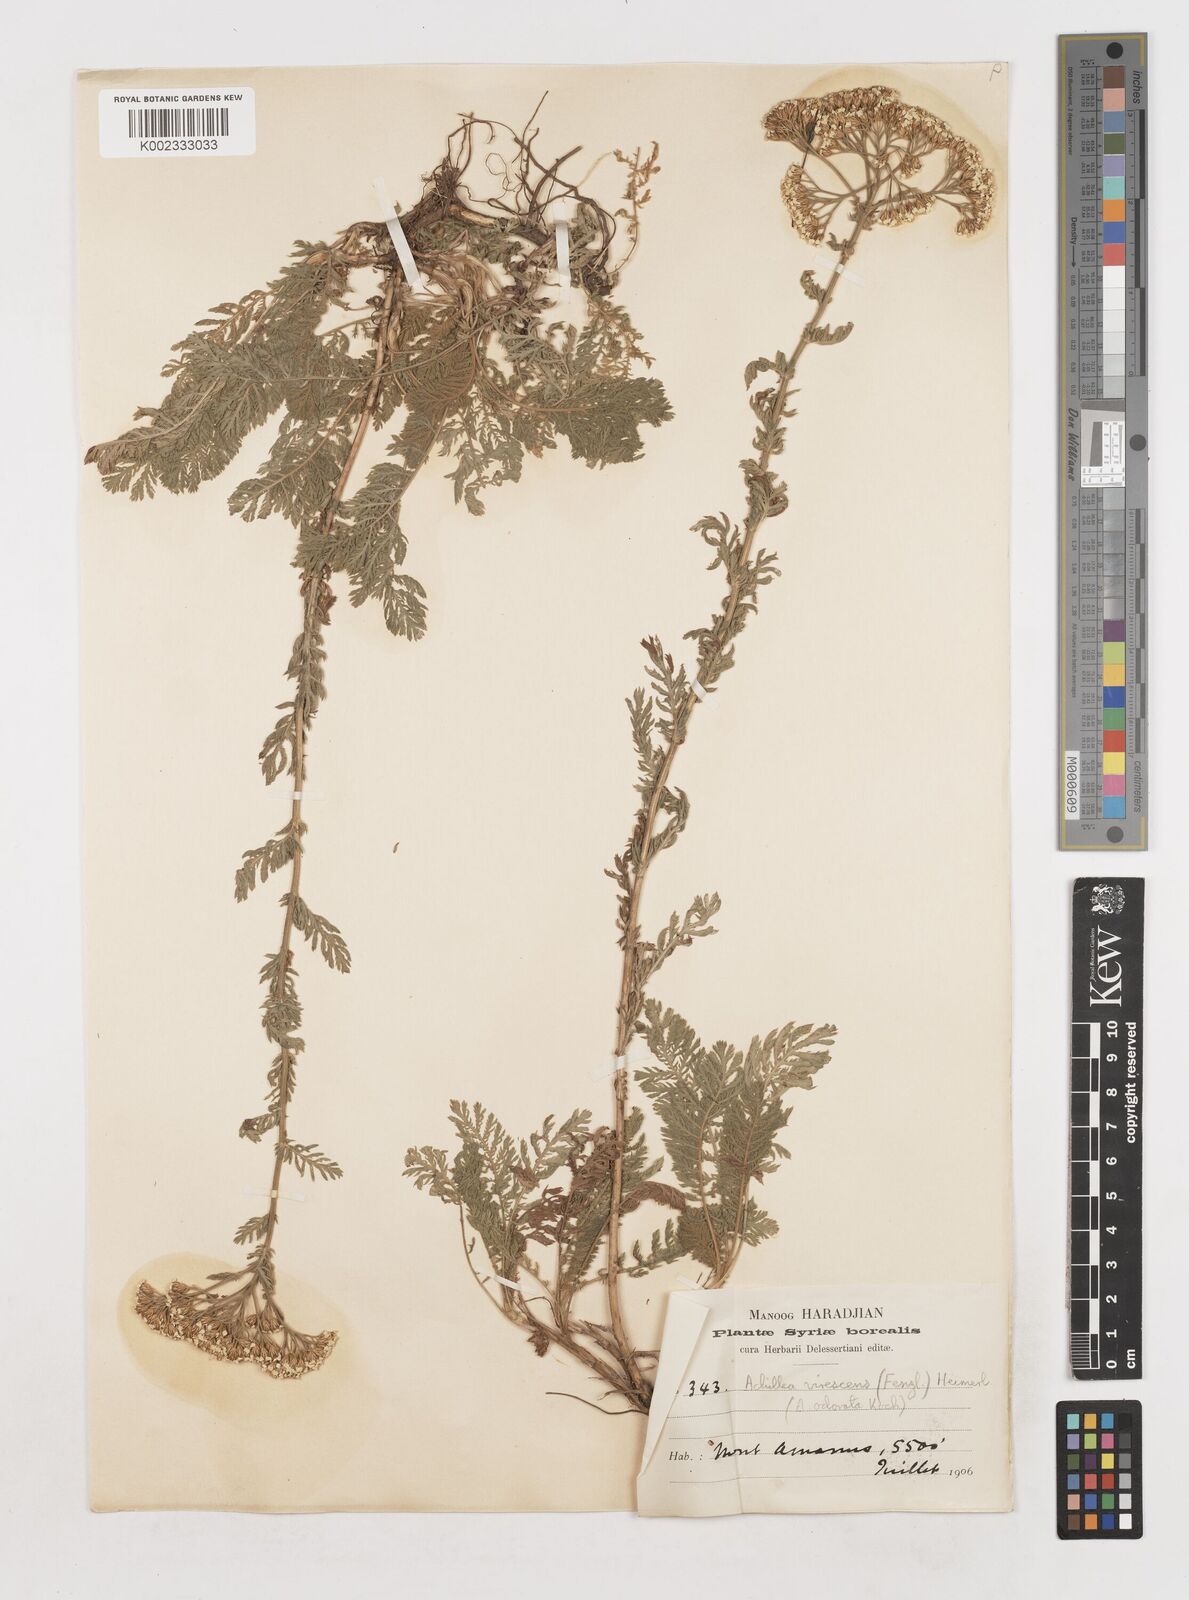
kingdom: Plantae
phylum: Tracheophyta
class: Magnoliopsida
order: Asterales
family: Asteraceae
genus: Achillea
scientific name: Achillea
